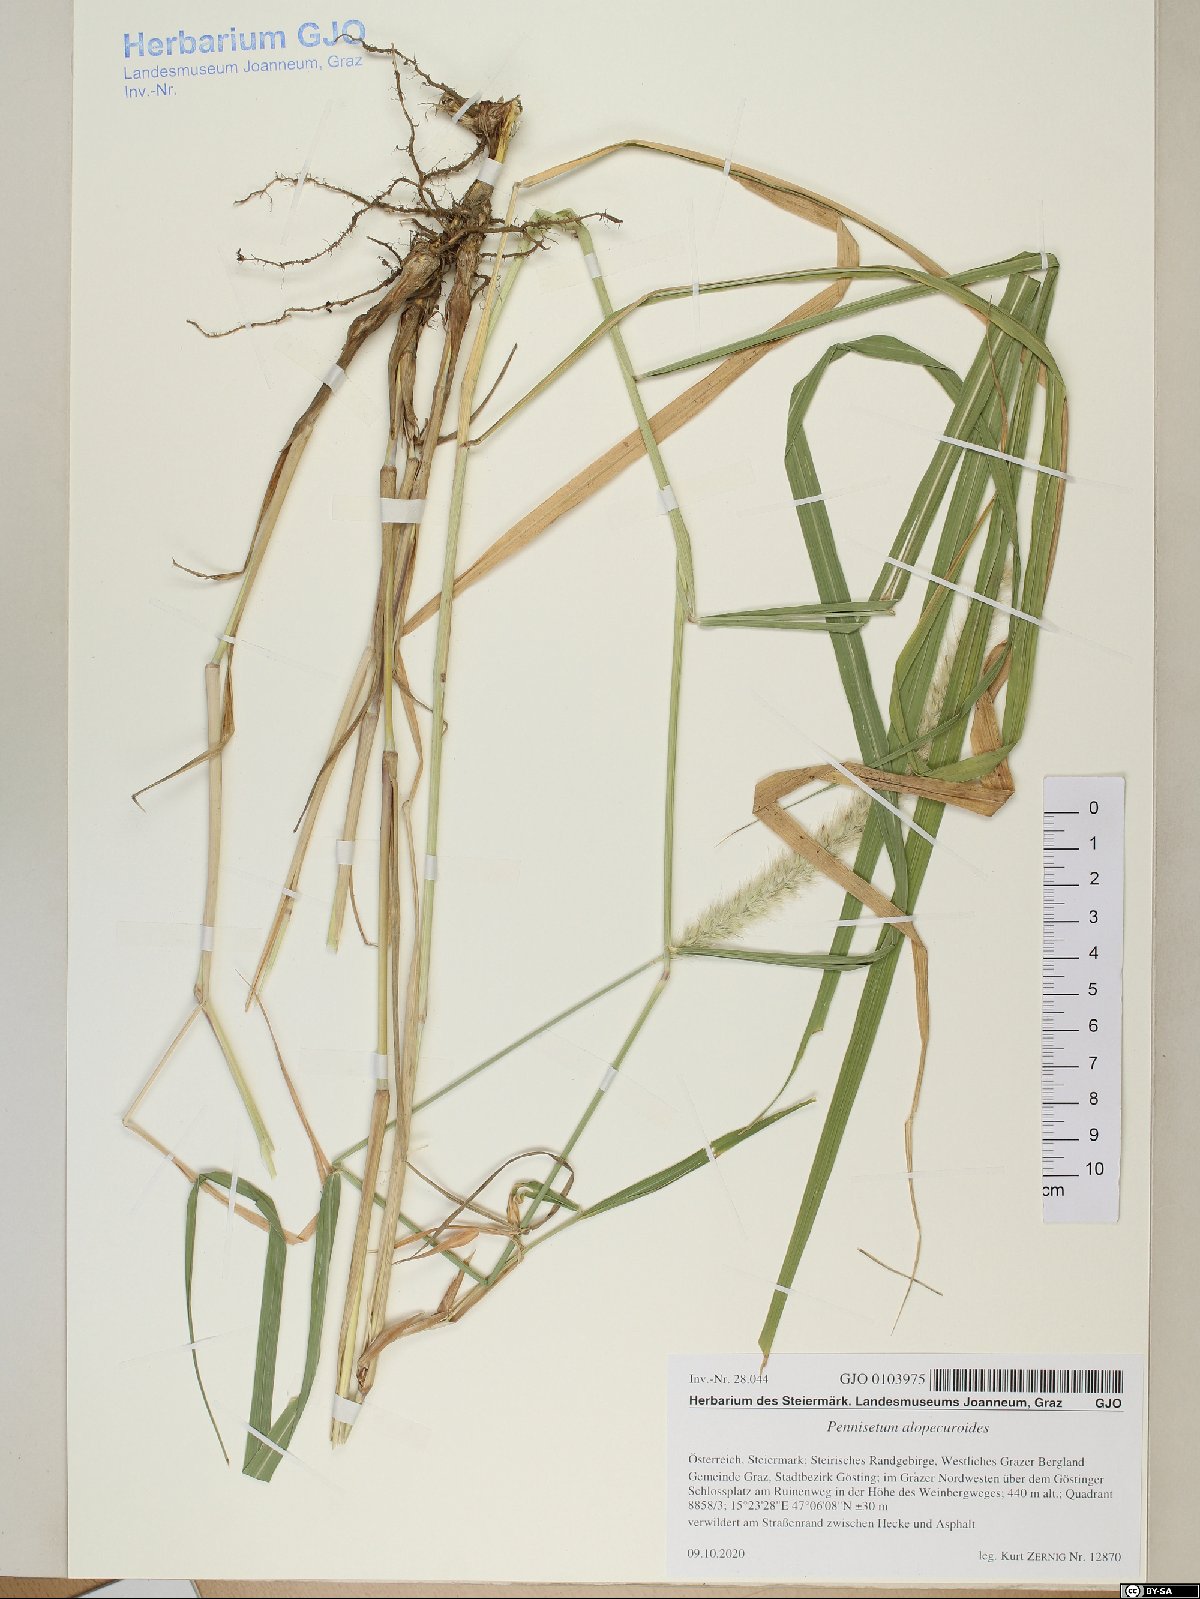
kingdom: Plantae
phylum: Tracheophyta
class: Liliopsida
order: Poales
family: Poaceae
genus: Cenchrus
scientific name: Cenchrus alopecuroides
